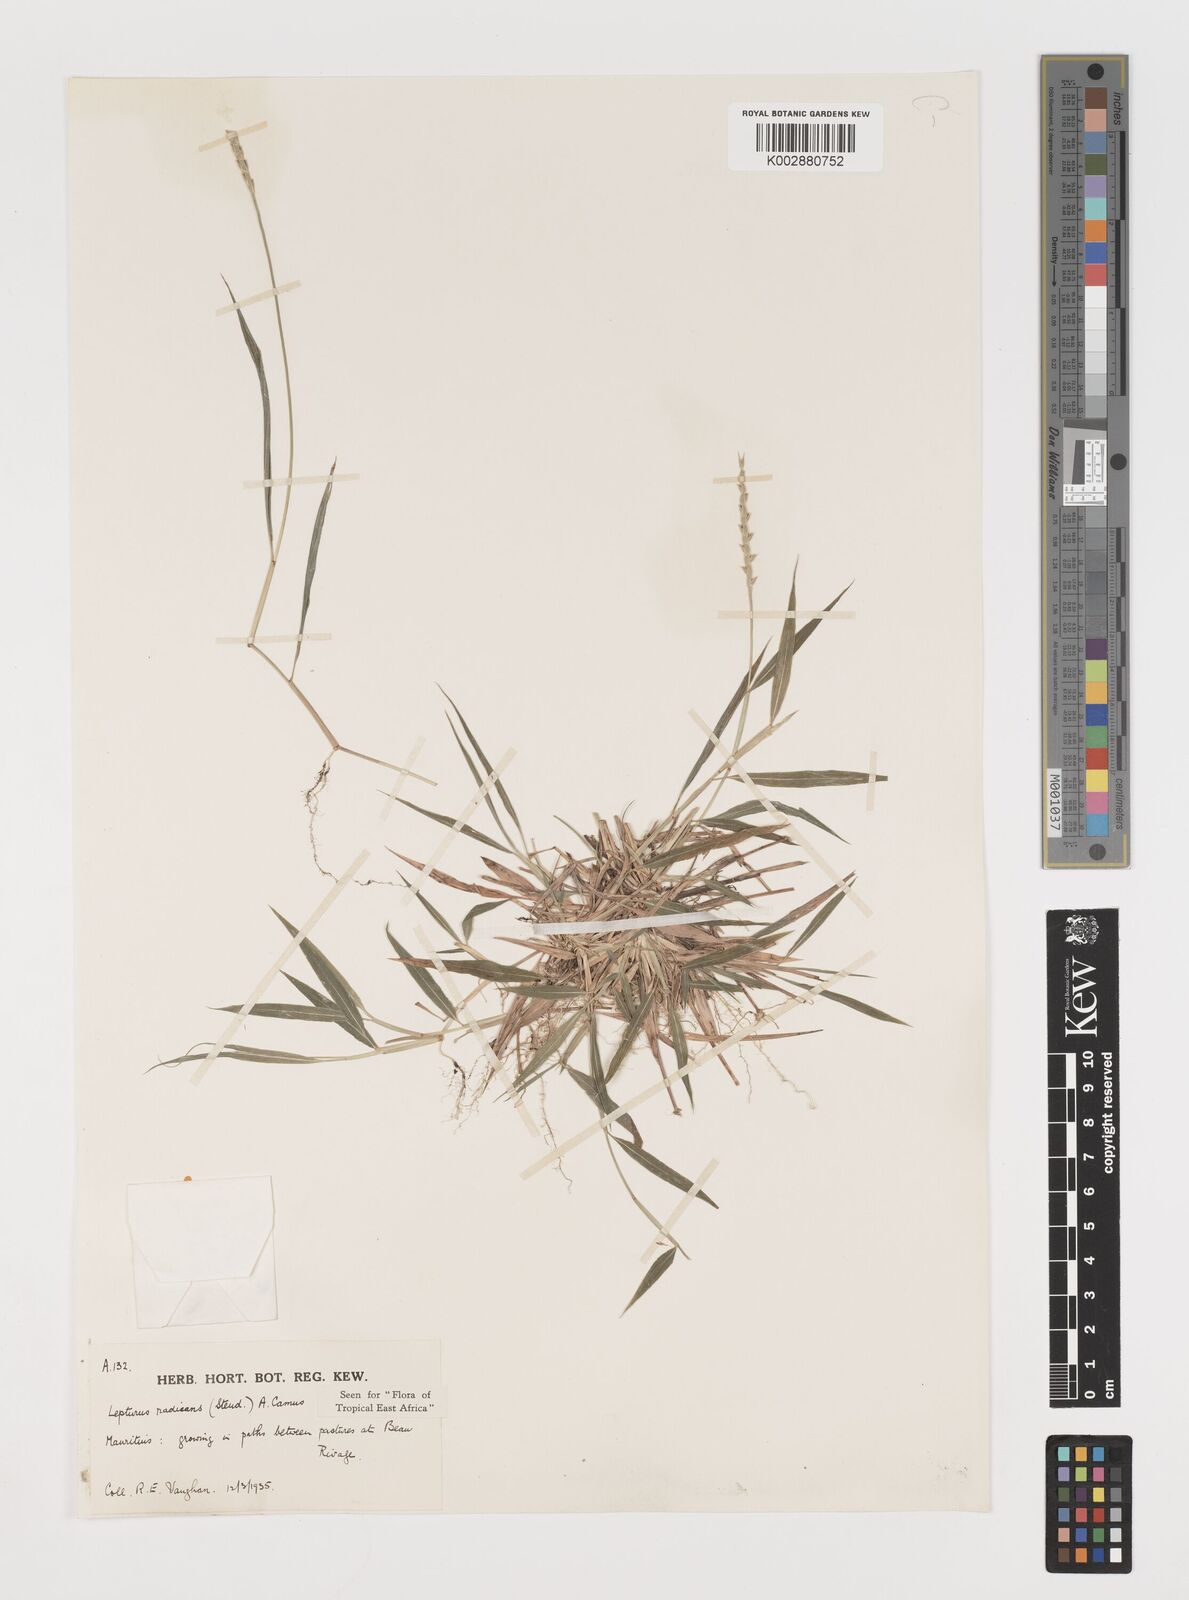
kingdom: Plantae
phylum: Tracheophyta
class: Liliopsida
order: Poales
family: Poaceae
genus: Lepturus
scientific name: Lepturus radicans
